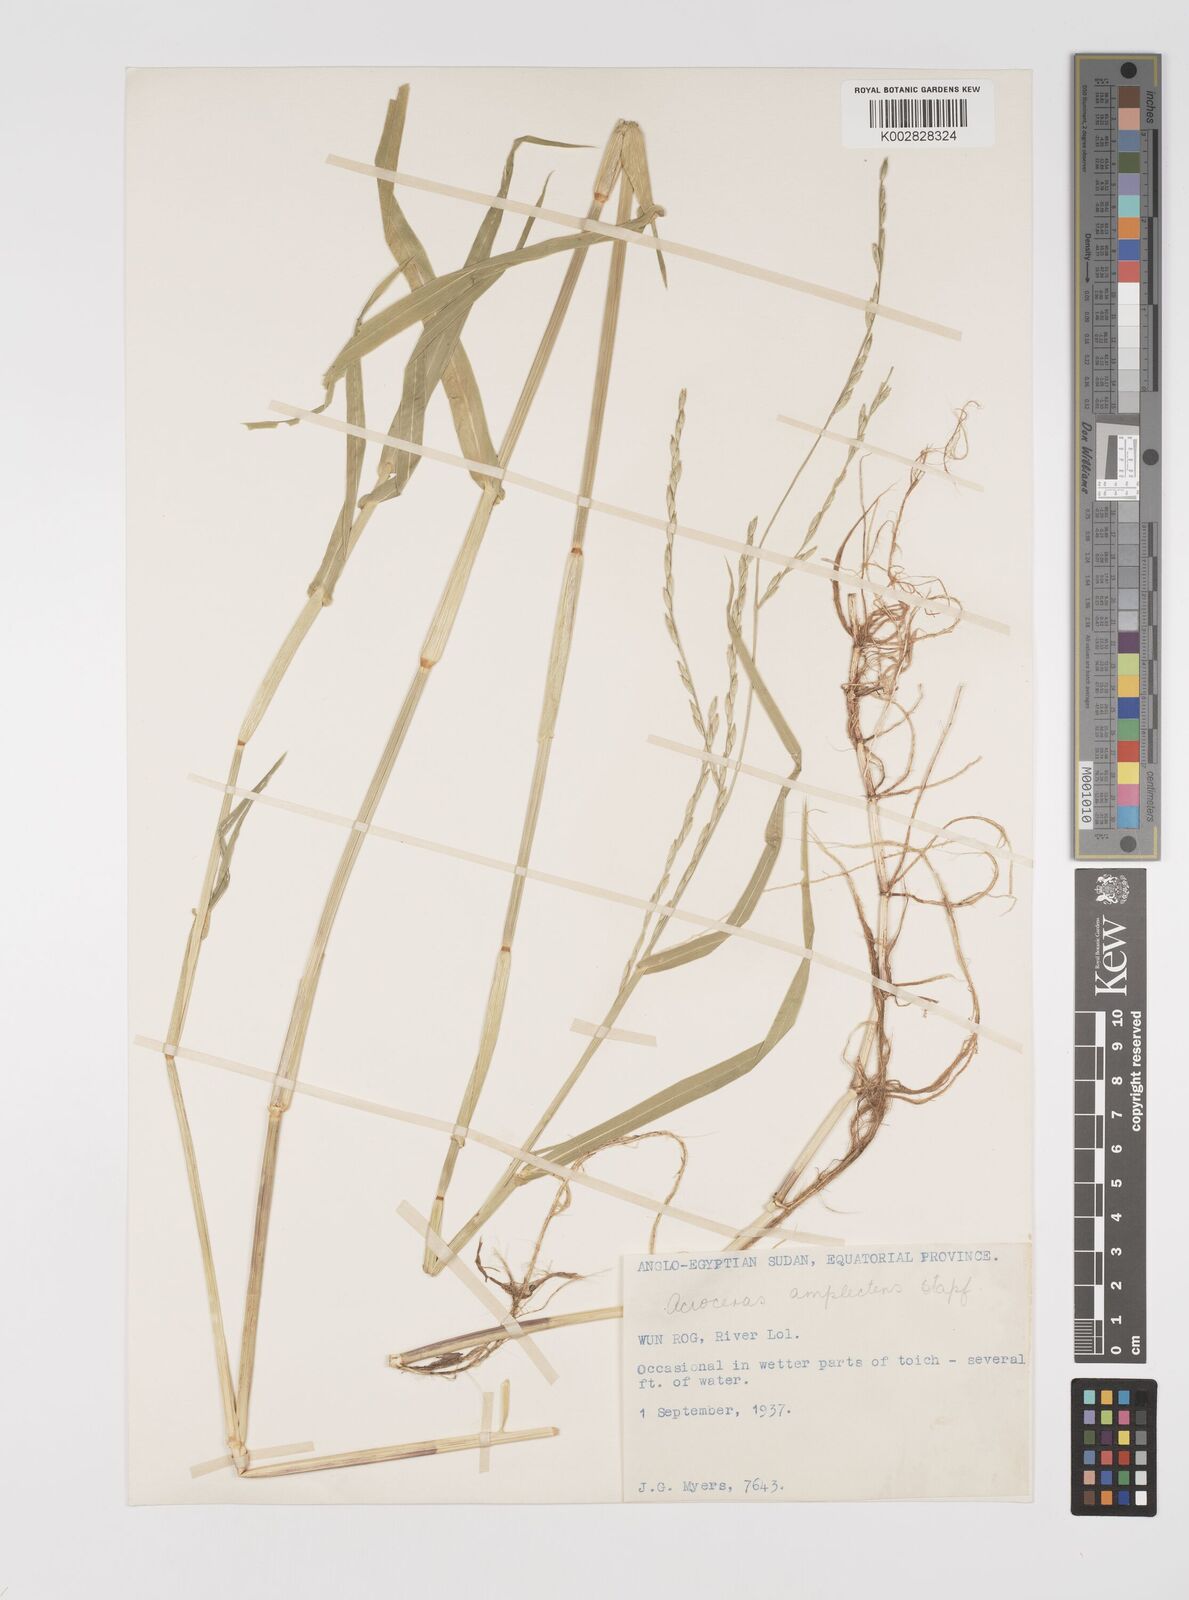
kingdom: Plantae
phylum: Tracheophyta
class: Liliopsida
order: Poales
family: Poaceae
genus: Acroceras
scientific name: Acroceras amplectens
